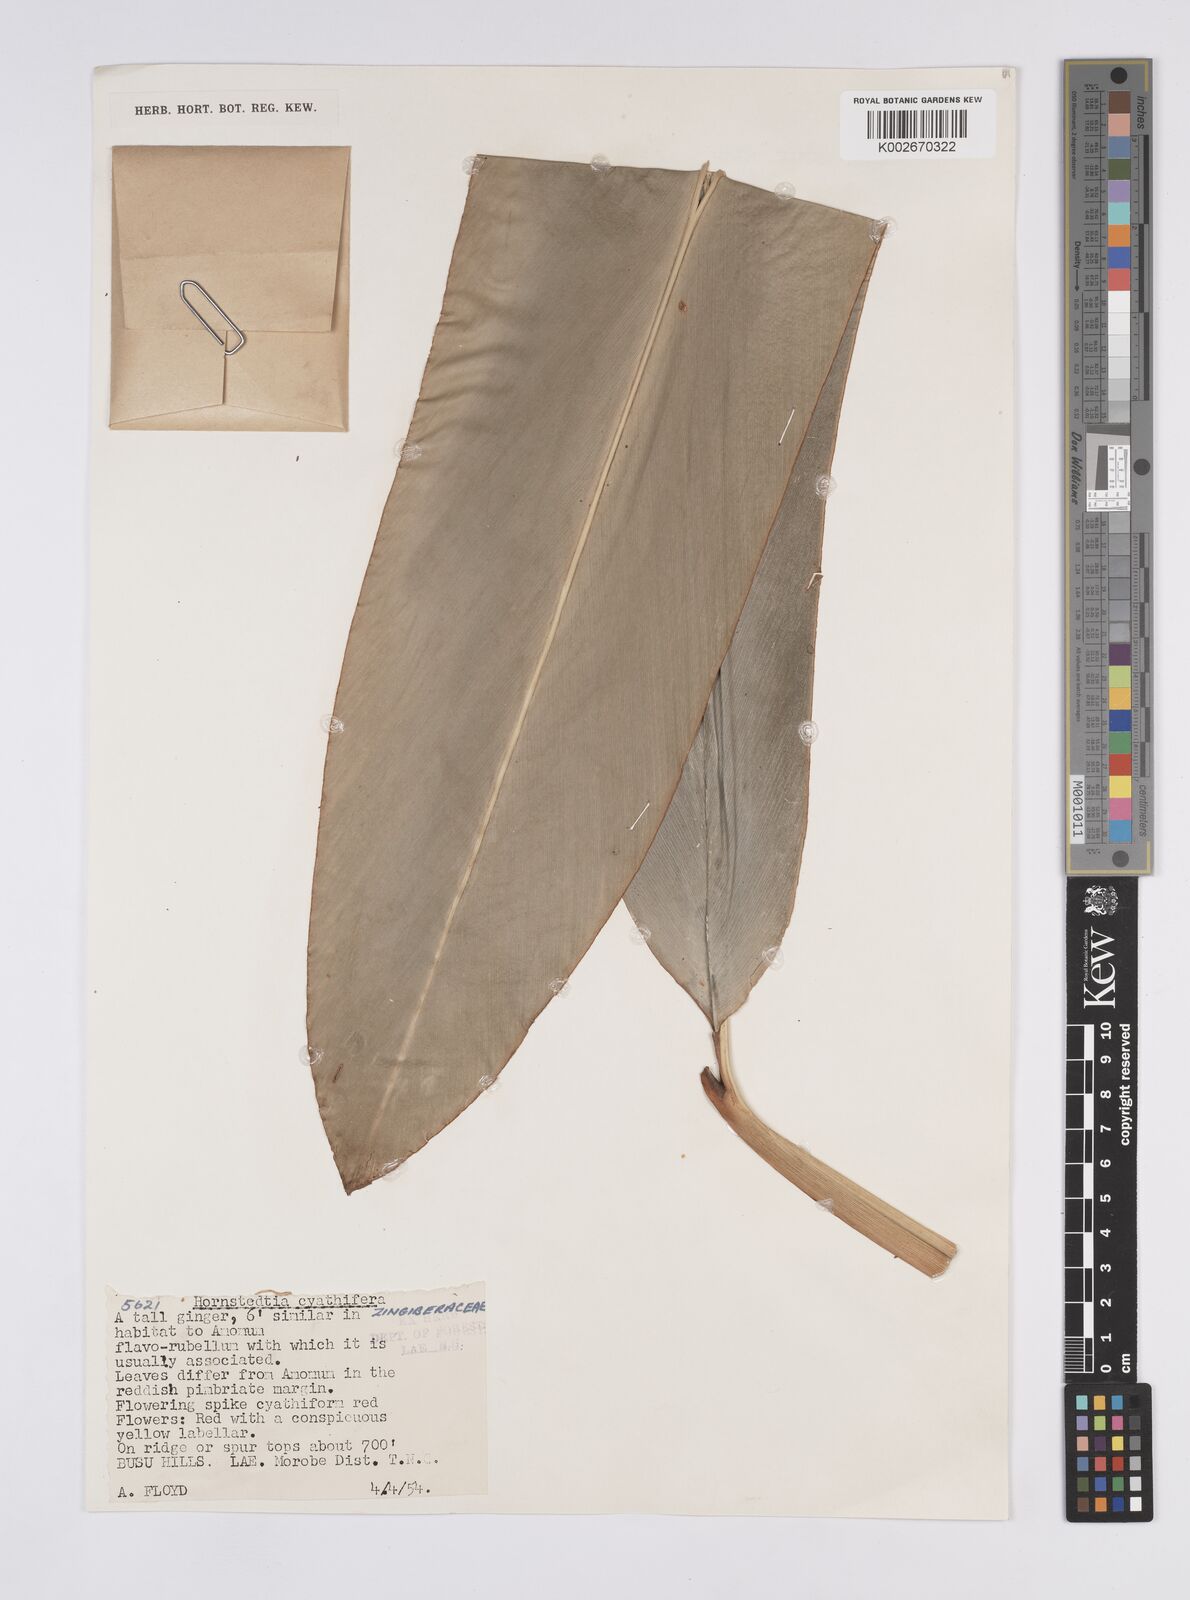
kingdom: Plantae
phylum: Tracheophyta
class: Liliopsida
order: Zingiberales
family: Zingiberaceae
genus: Hornstedtia
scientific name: Hornstedtia
